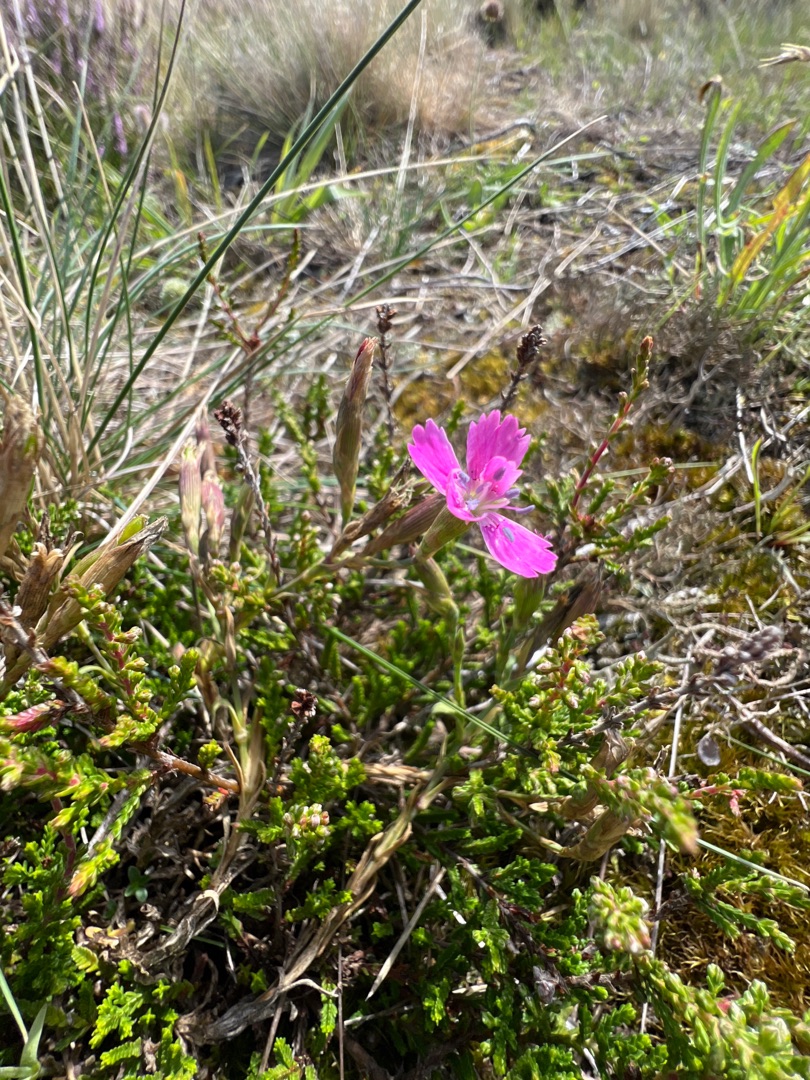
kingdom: Plantae
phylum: Tracheophyta
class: Magnoliopsida
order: Caryophyllales
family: Caryophyllaceae
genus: Dianthus
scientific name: Dianthus deltoides
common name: Bakke-nellike
